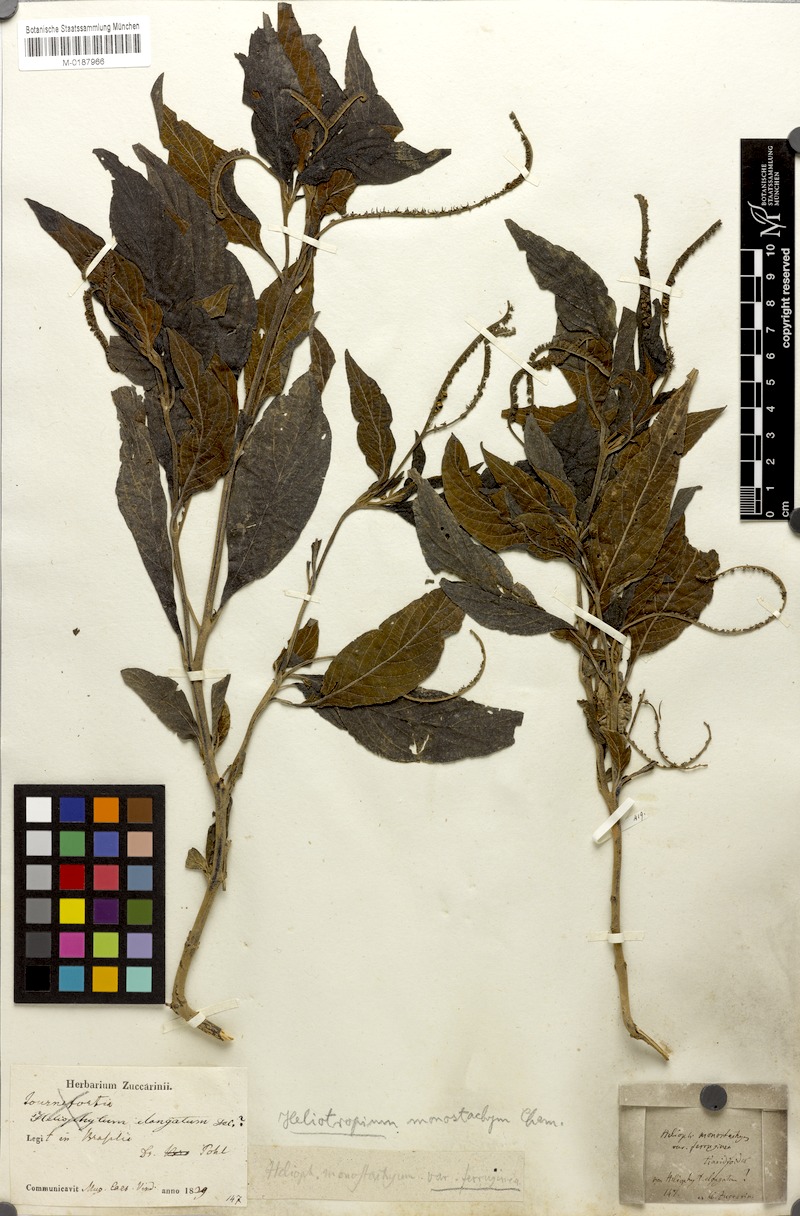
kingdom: Plantae
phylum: Tracheophyta
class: Magnoliopsida
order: Boraginales
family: Heliotropiaceae
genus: Heliotropium
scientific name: Heliotropium transalpinum
